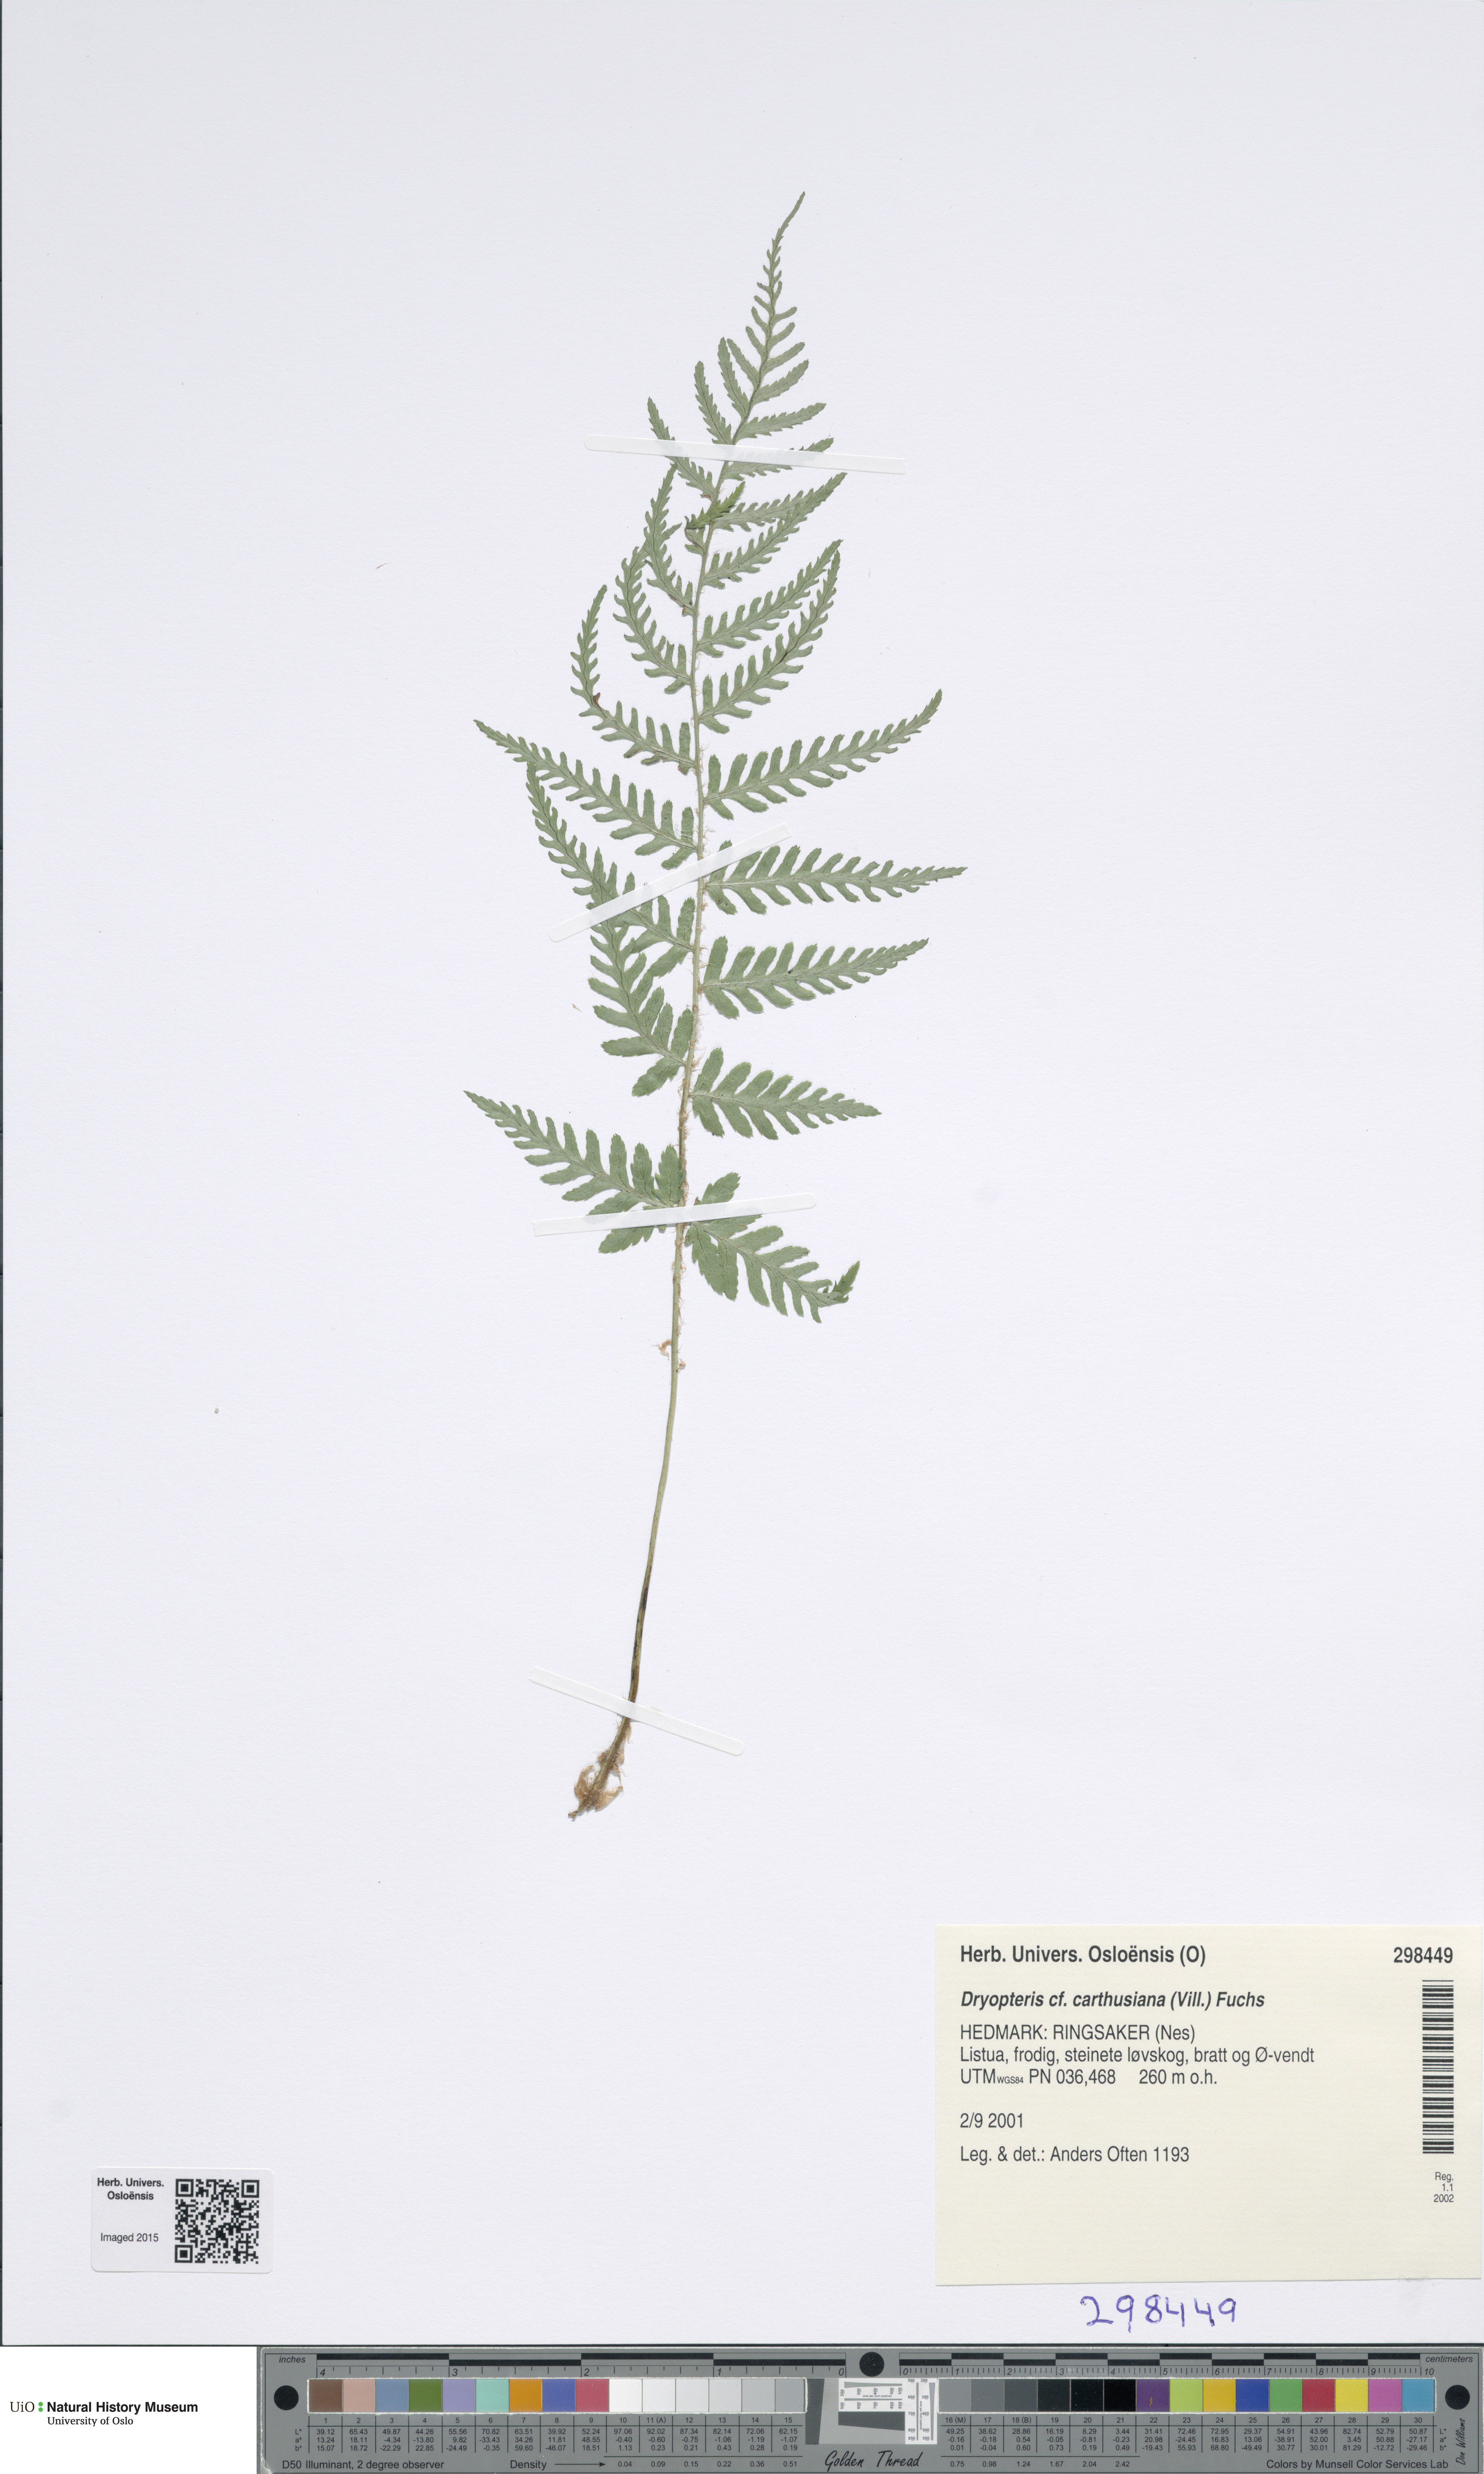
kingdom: Plantae
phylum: Tracheophyta
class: Polypodiopsida
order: Polypodiales
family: Dryopteridaceae
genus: Dryopteris
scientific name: Dryopteris carthusiana
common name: Narrow buckler-fern
